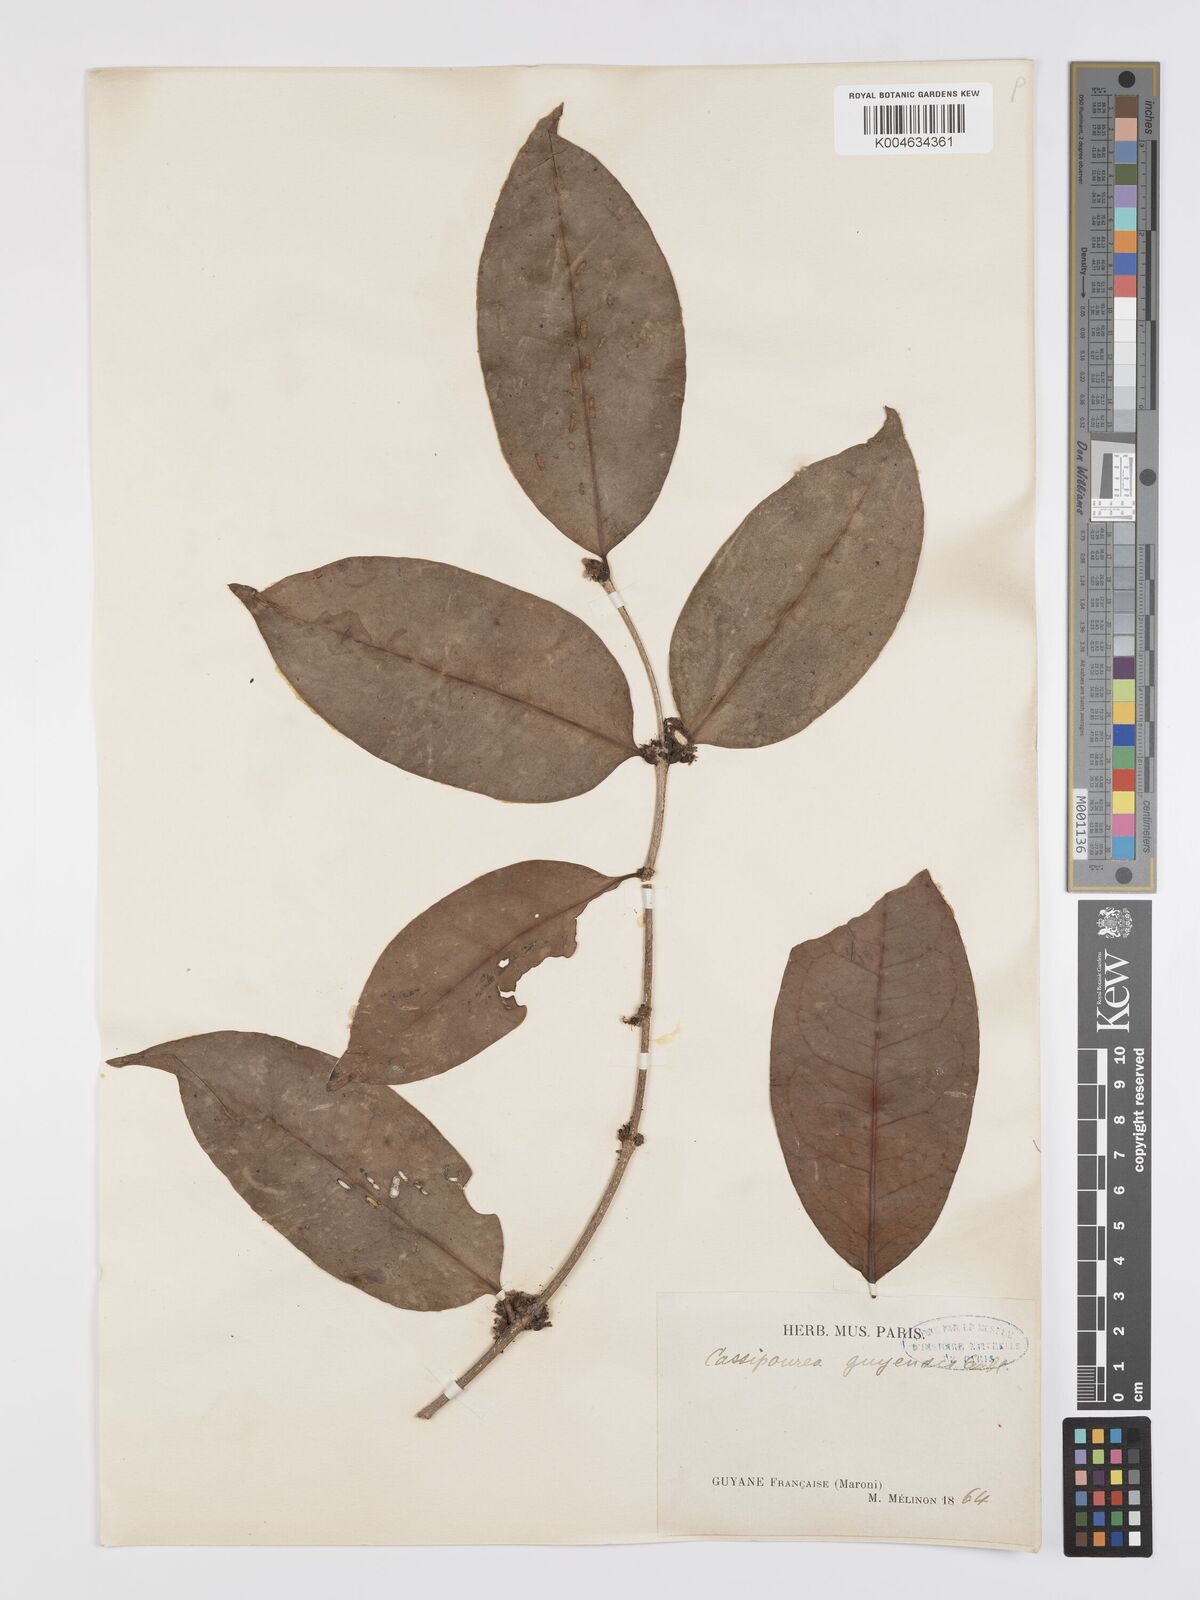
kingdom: Plantae
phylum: Tracheophyta
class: Magnoliopsida
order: Malpighiales
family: Rhizophoraceae
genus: Cassipourea
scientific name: Cassipourea guianensis
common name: Bastard waterwood
